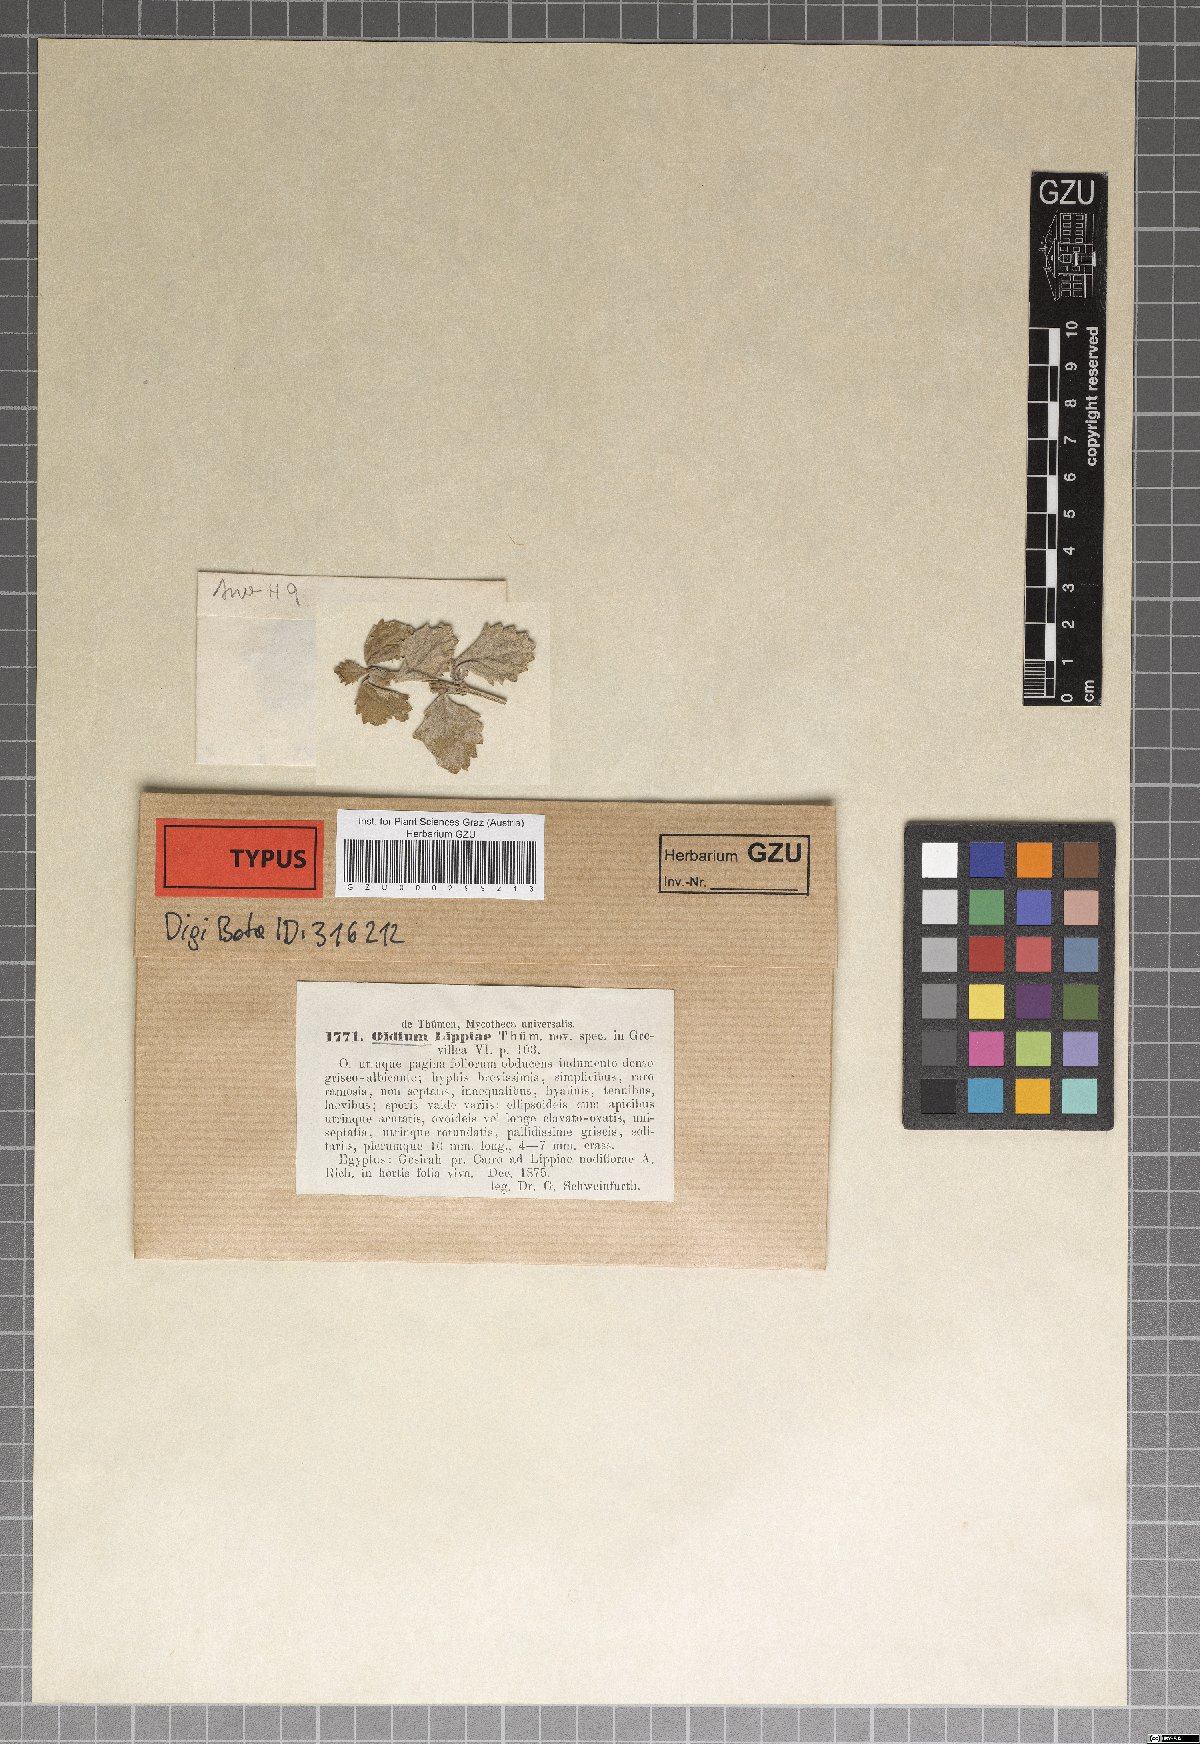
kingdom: Fungi
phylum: Ascomycota
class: Leotiomycetes
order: Helotiales
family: Erysiphaceae
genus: Oidium
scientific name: Oidium lippiae
